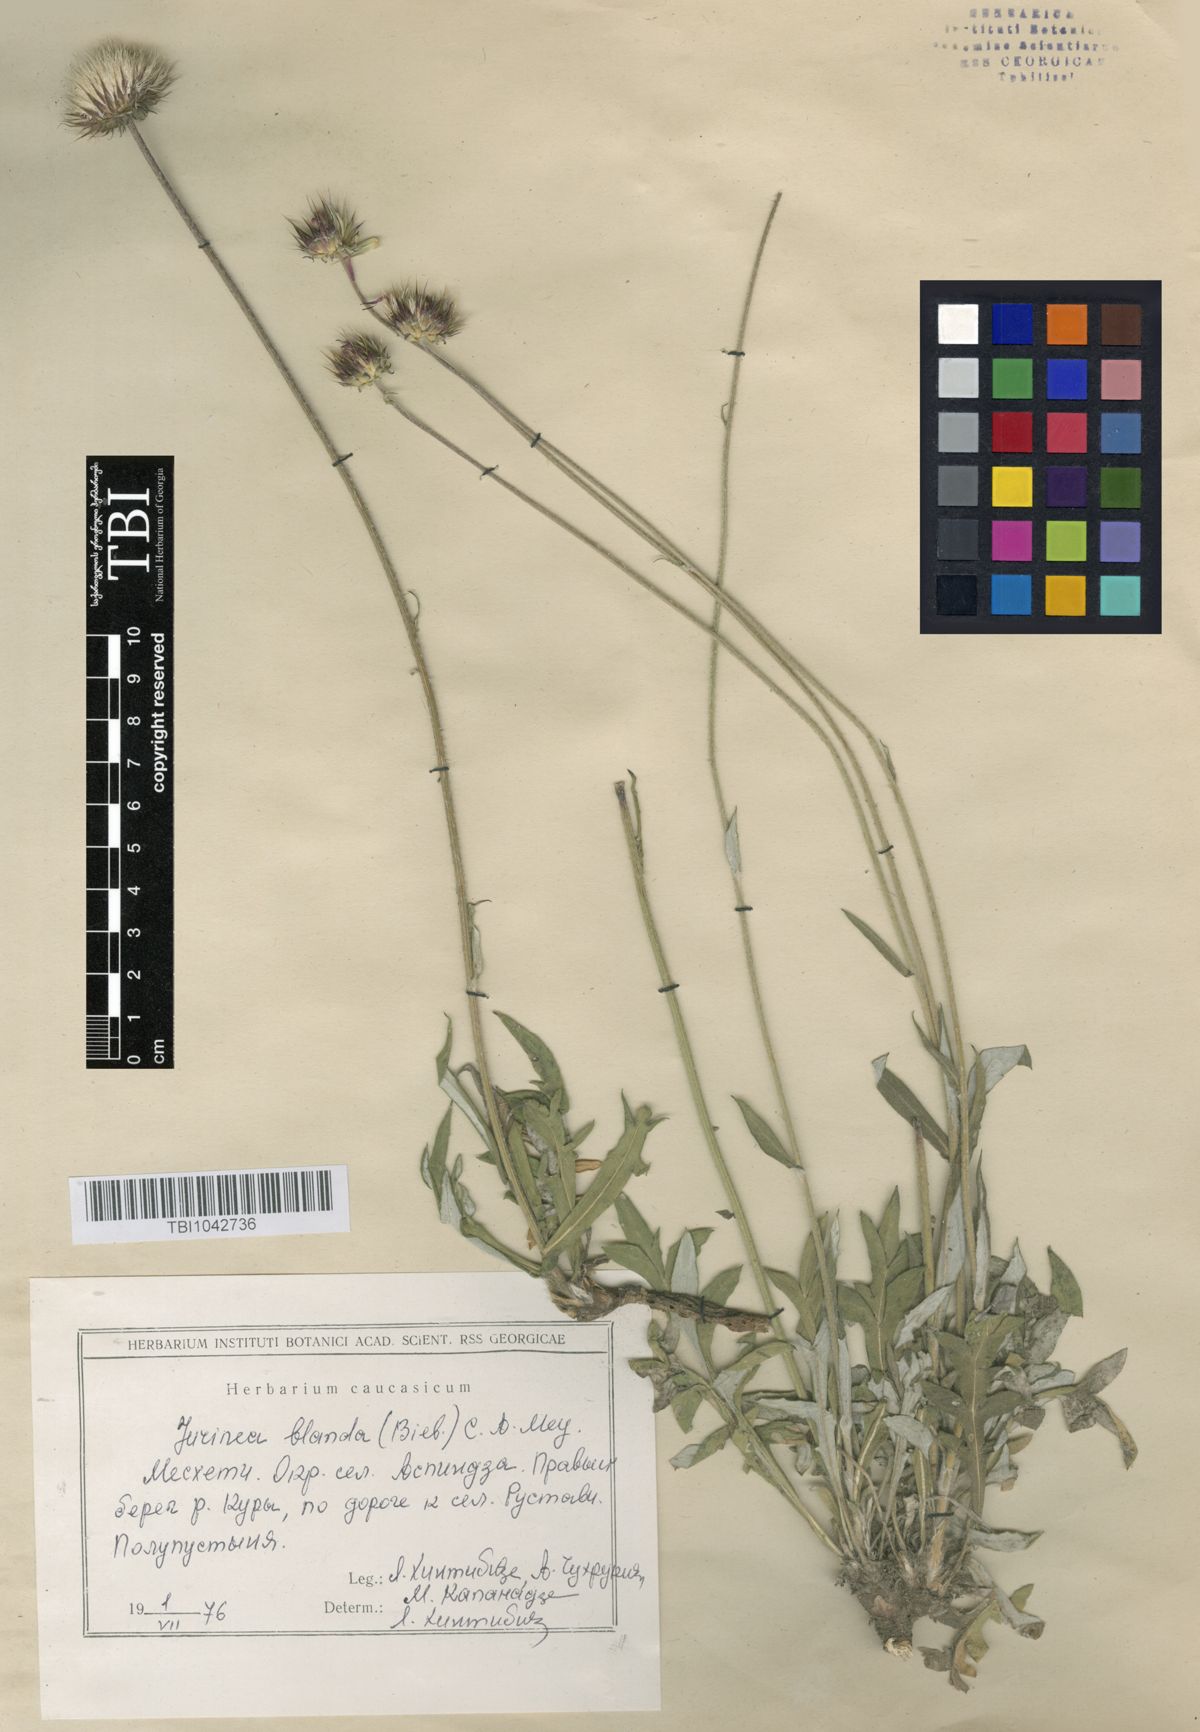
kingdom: Plantae
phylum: Tracheophyta
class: Magnoliopsida
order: Asterales
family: Asteraceae
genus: Jurinea
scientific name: Jurinea blanda
